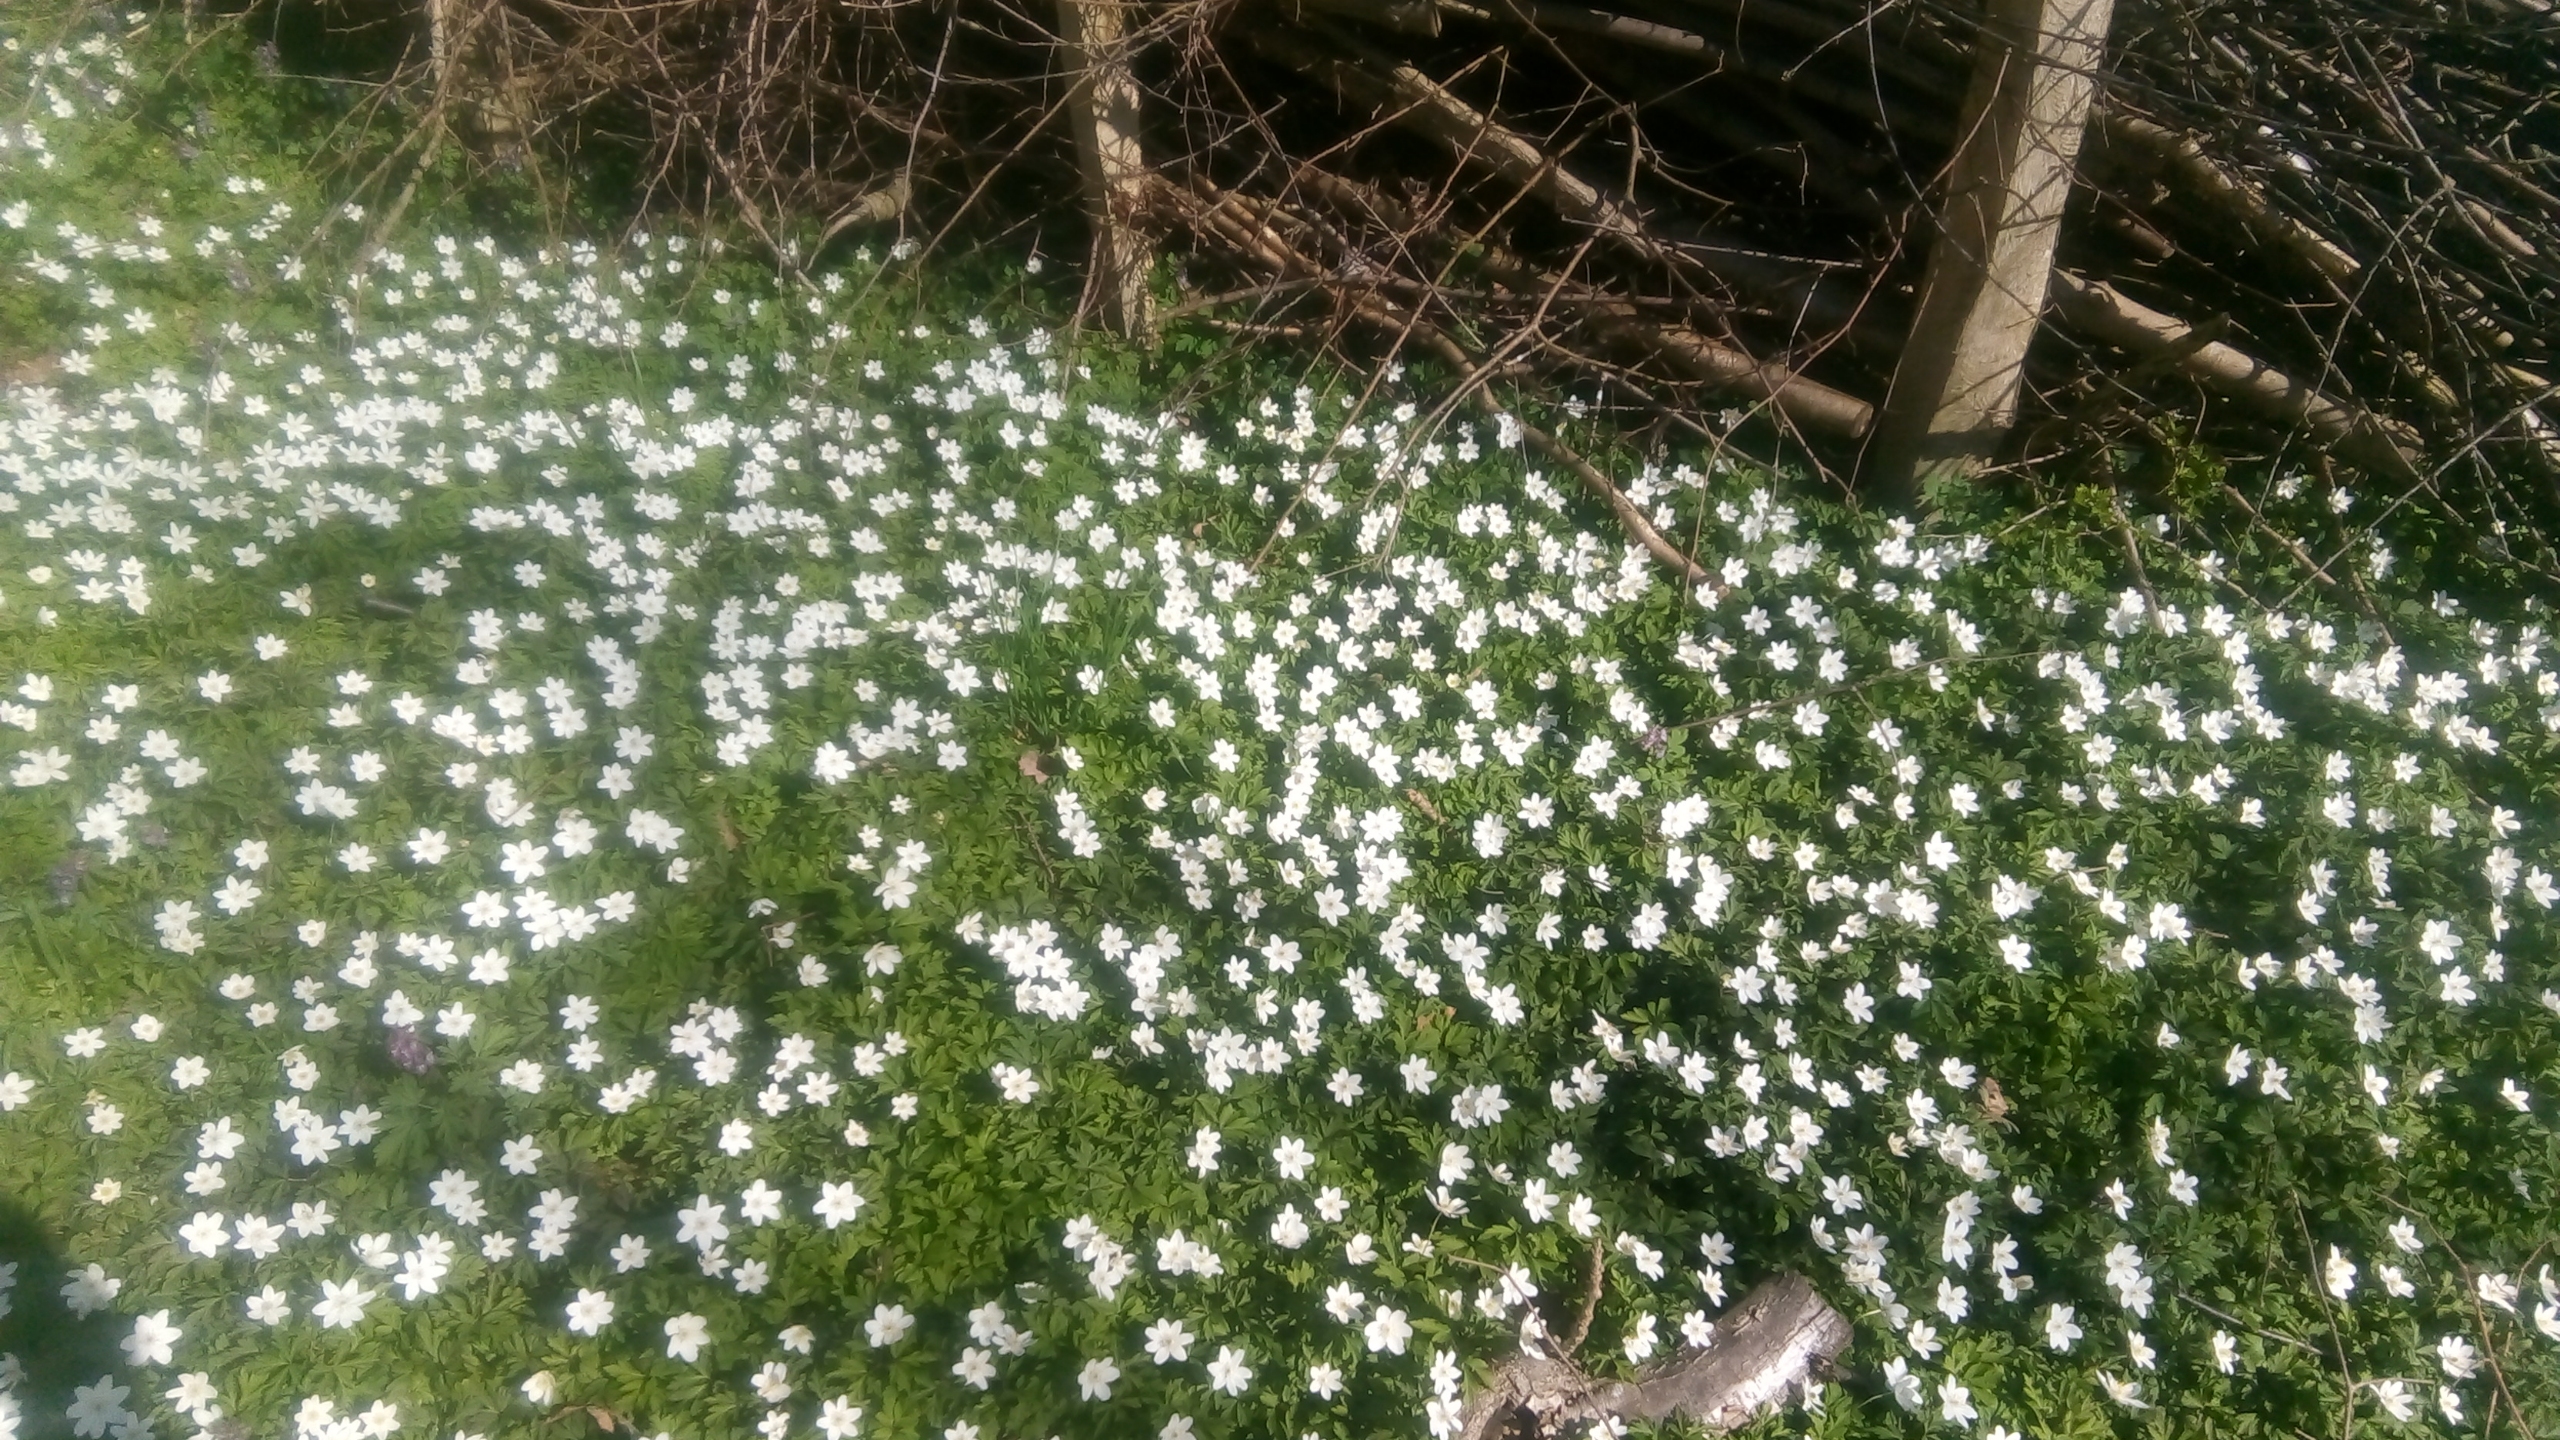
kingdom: Plantae
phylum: Tracheophyta
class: Magnoliopsida
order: Ranunculales
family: Ranunculaceae
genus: Anemone
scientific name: Anemone nemorosa
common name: Hvid anemone
